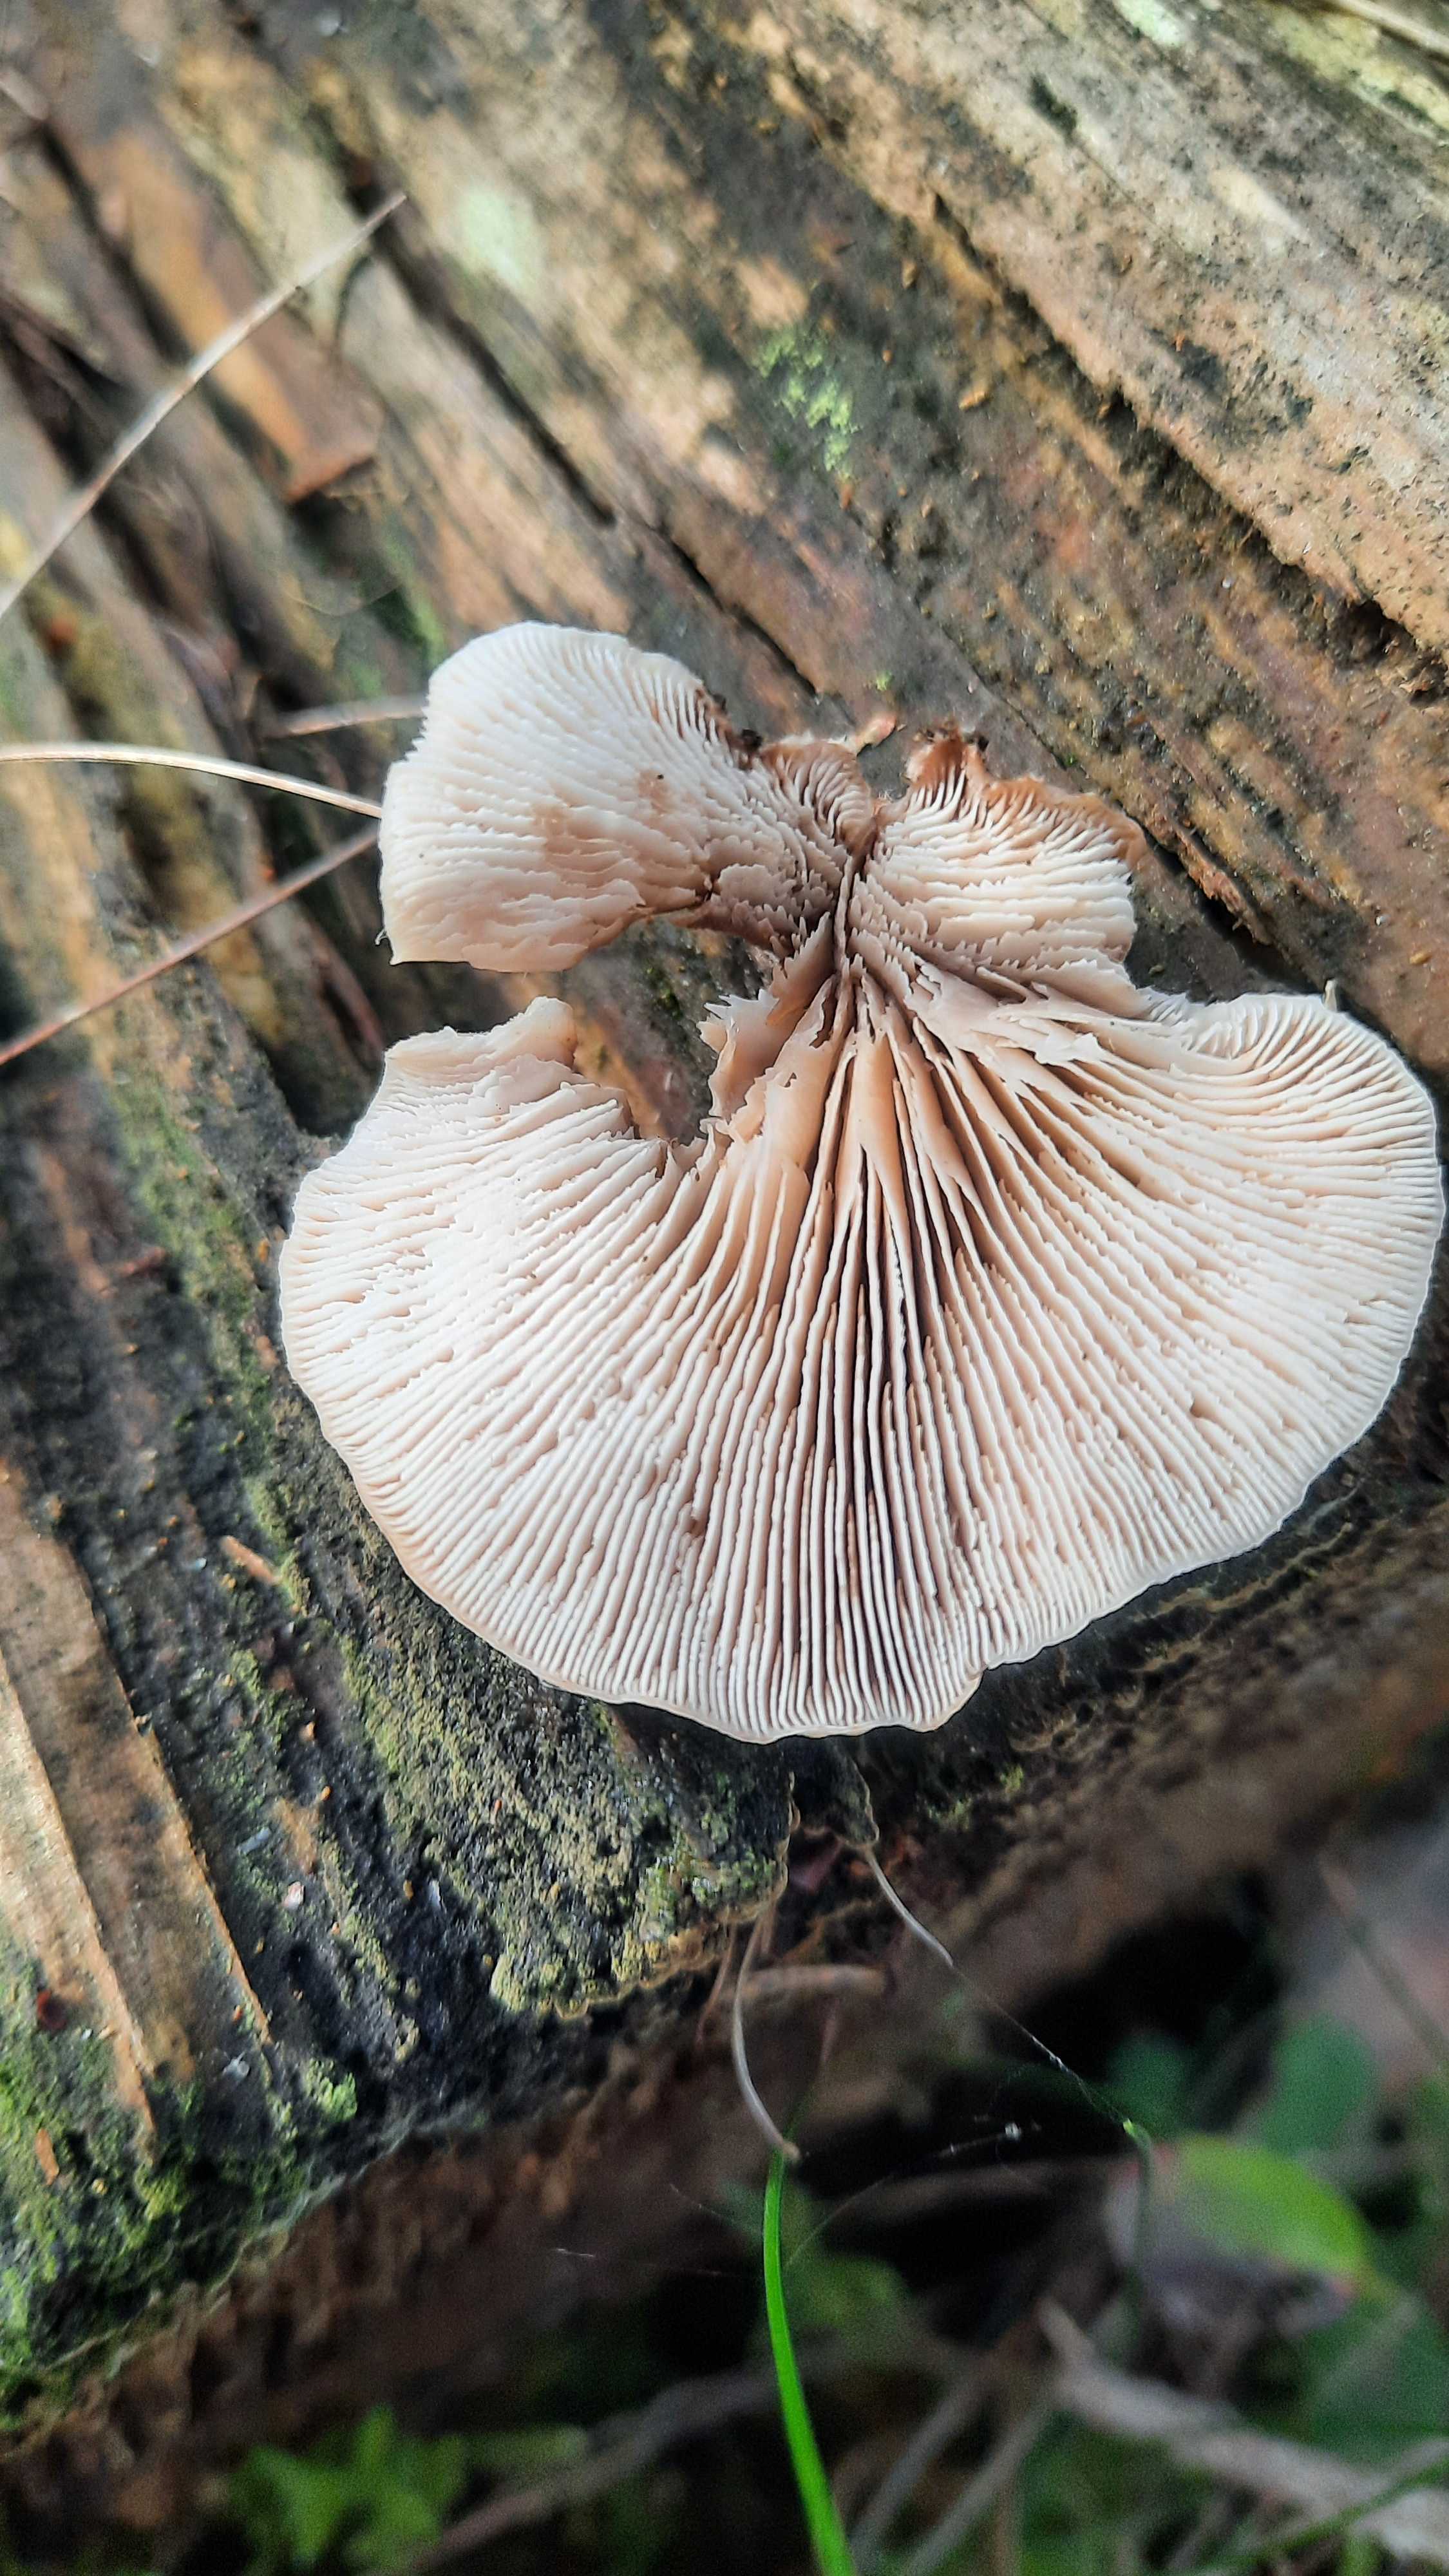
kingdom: Fungi
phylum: Basidiomycota
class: Agaricomycetes
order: Russulales
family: Auriscalpiaceae
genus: Lentinellus
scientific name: Lentinellus ursinus
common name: børstehåret savbladhat
